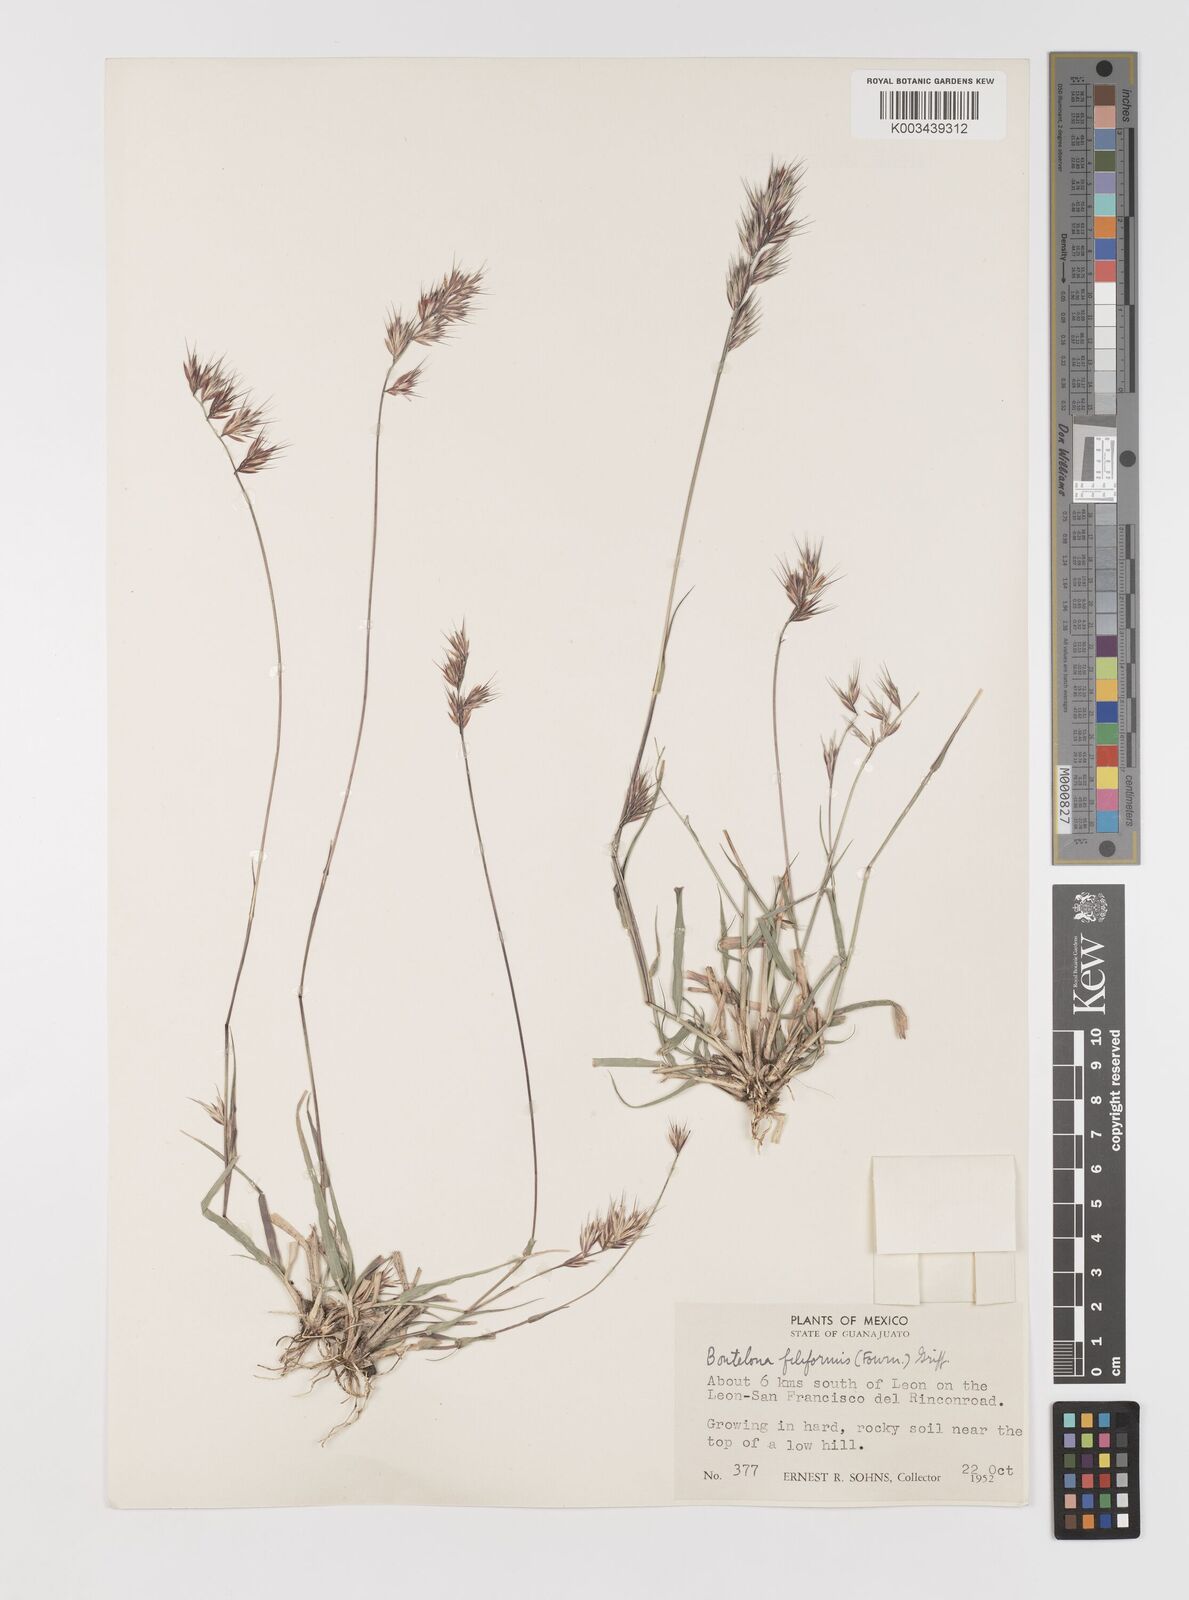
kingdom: Plantae
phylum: Tracheophyta
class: Liliopsida
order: Poales
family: Poaceae
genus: Bouteloua
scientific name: Bouteloua repens
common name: Slender grama
